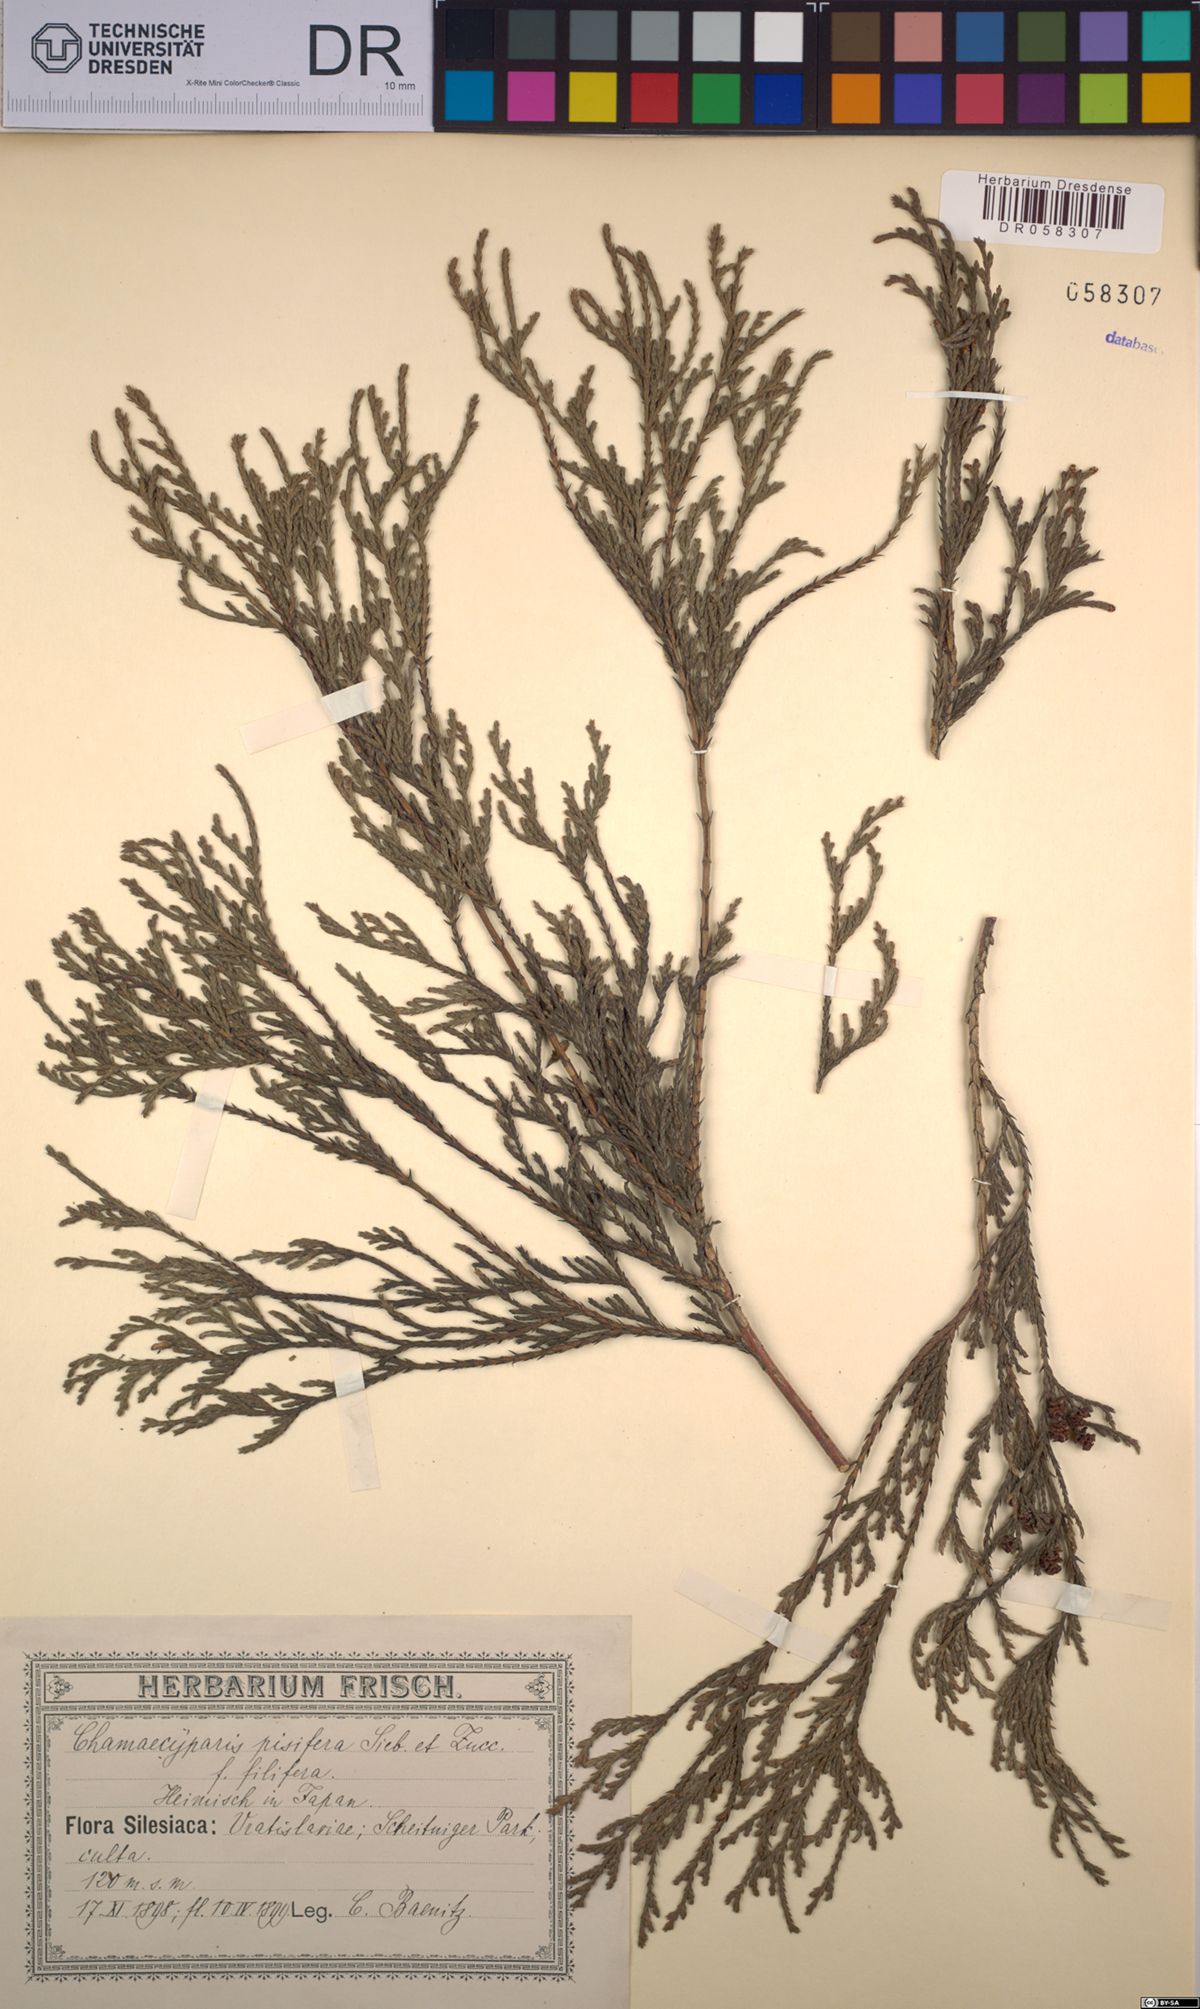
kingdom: Plantae
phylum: Tracheophyta
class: Pinopsida
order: Pinales
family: Cupressaceae
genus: Chamaecyparis
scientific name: Chamaecyparis pisifera
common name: Sawara cypress
